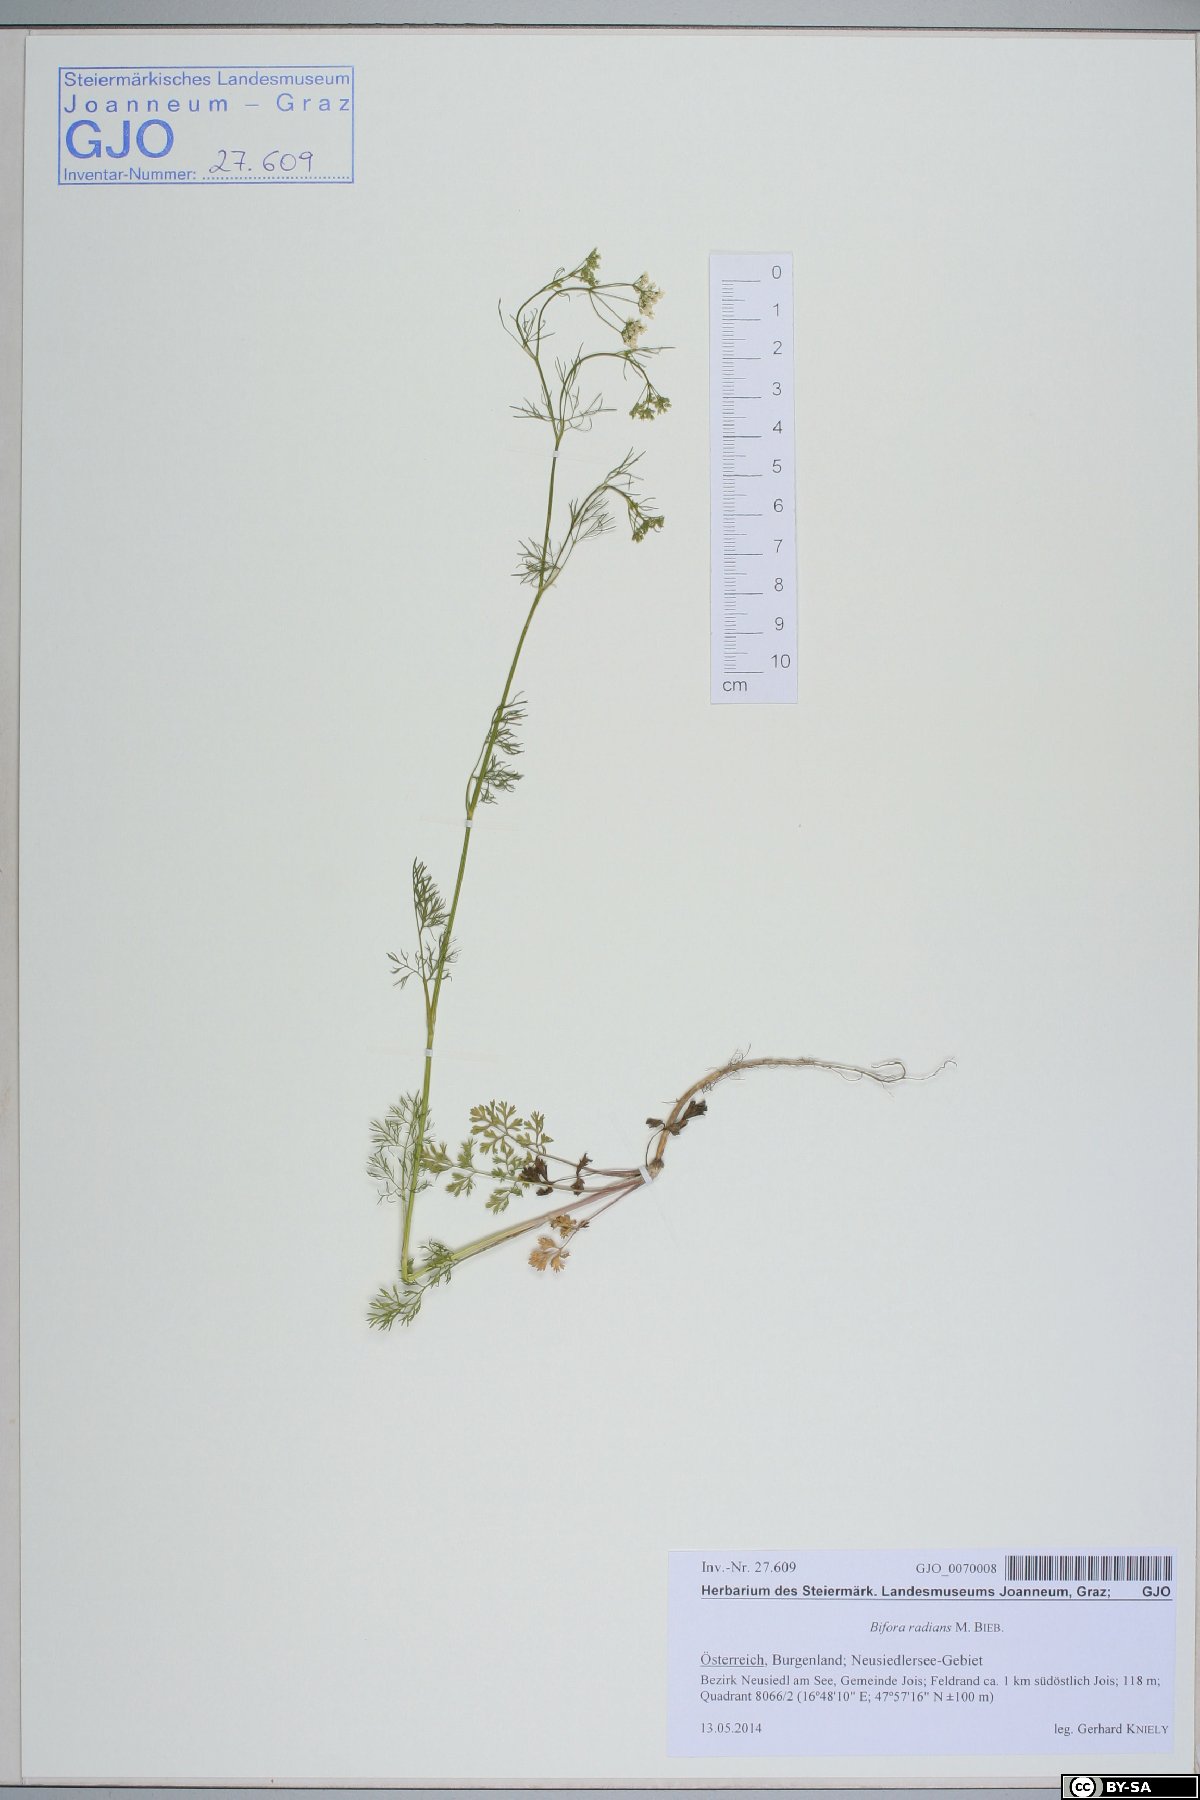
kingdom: Plantae
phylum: Tracheophyta
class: Magnoliopsida
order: Apiales
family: Apiaceae
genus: Bifora
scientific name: Bifora radians
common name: Wild bishop
